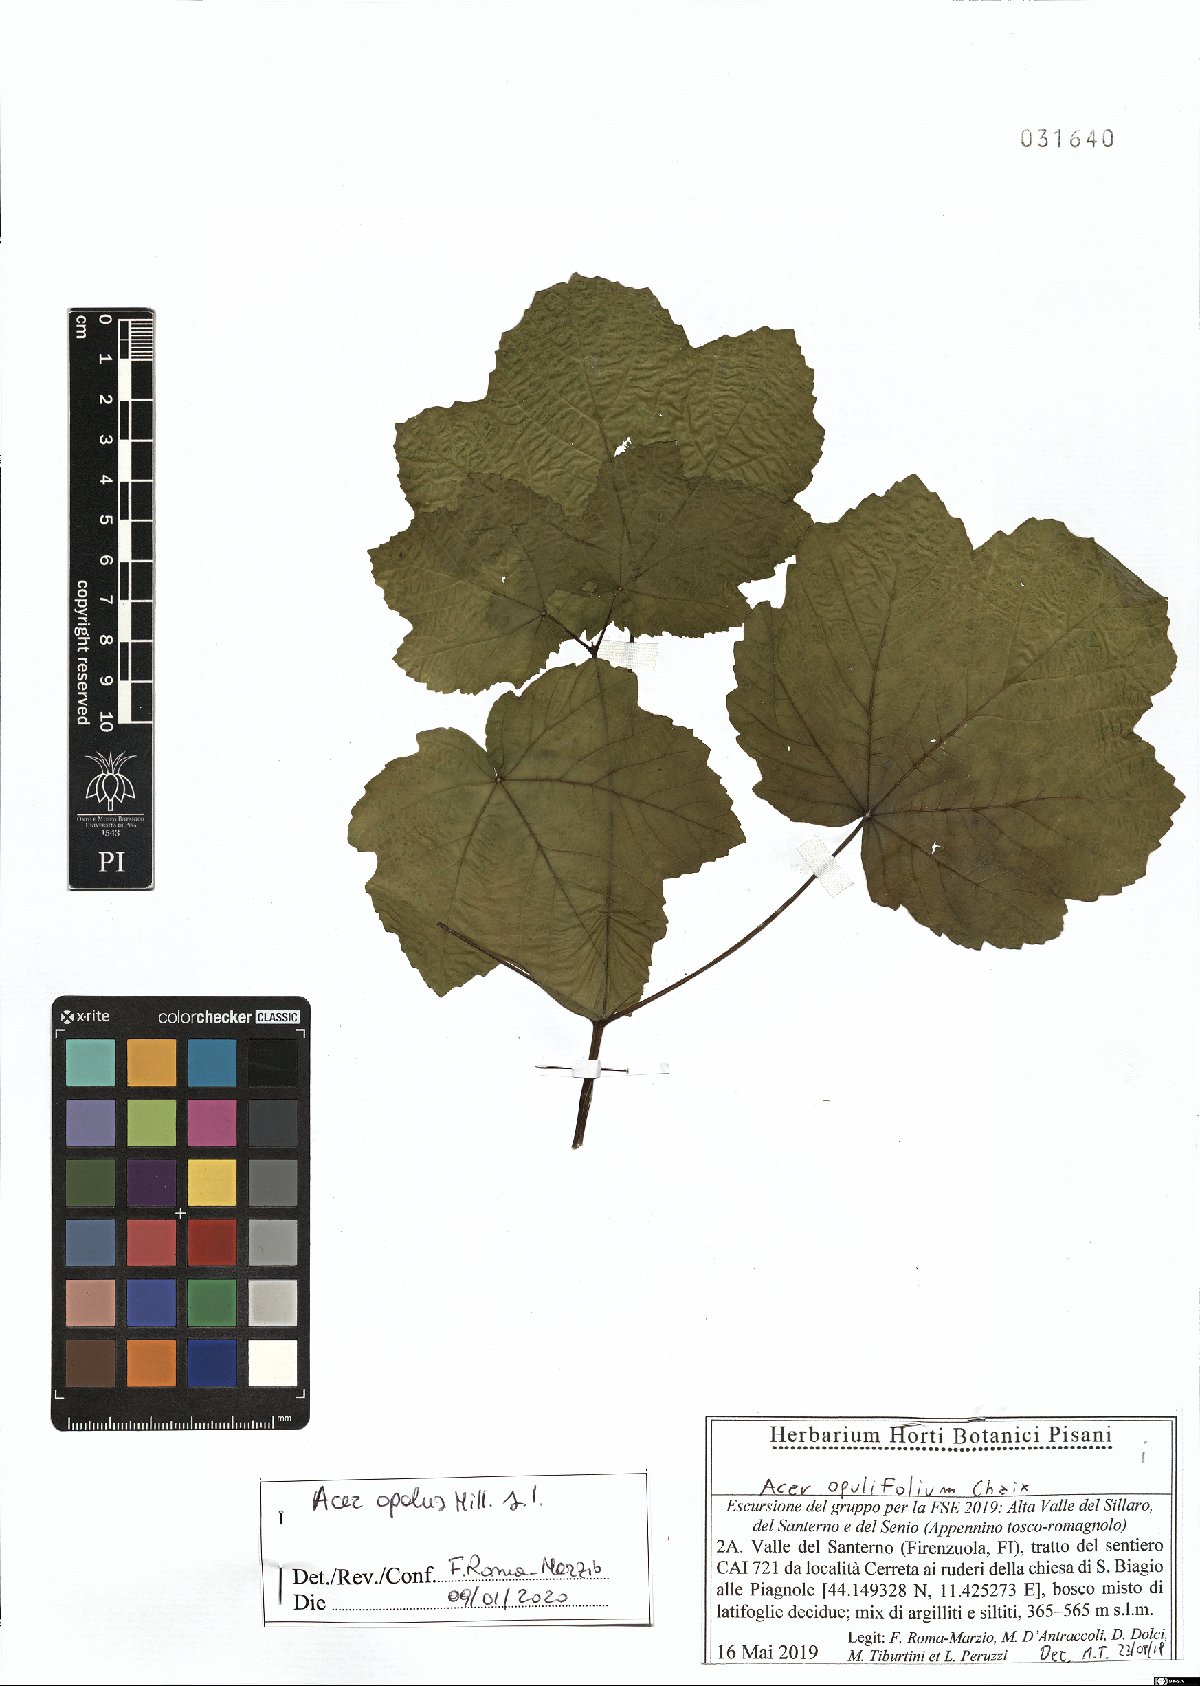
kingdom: Plantae
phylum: Tracheophyta
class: Magnoliopsida
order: Sapindales
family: Sapindaceae
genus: Acer
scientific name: Acer opalus
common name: Italian maple
